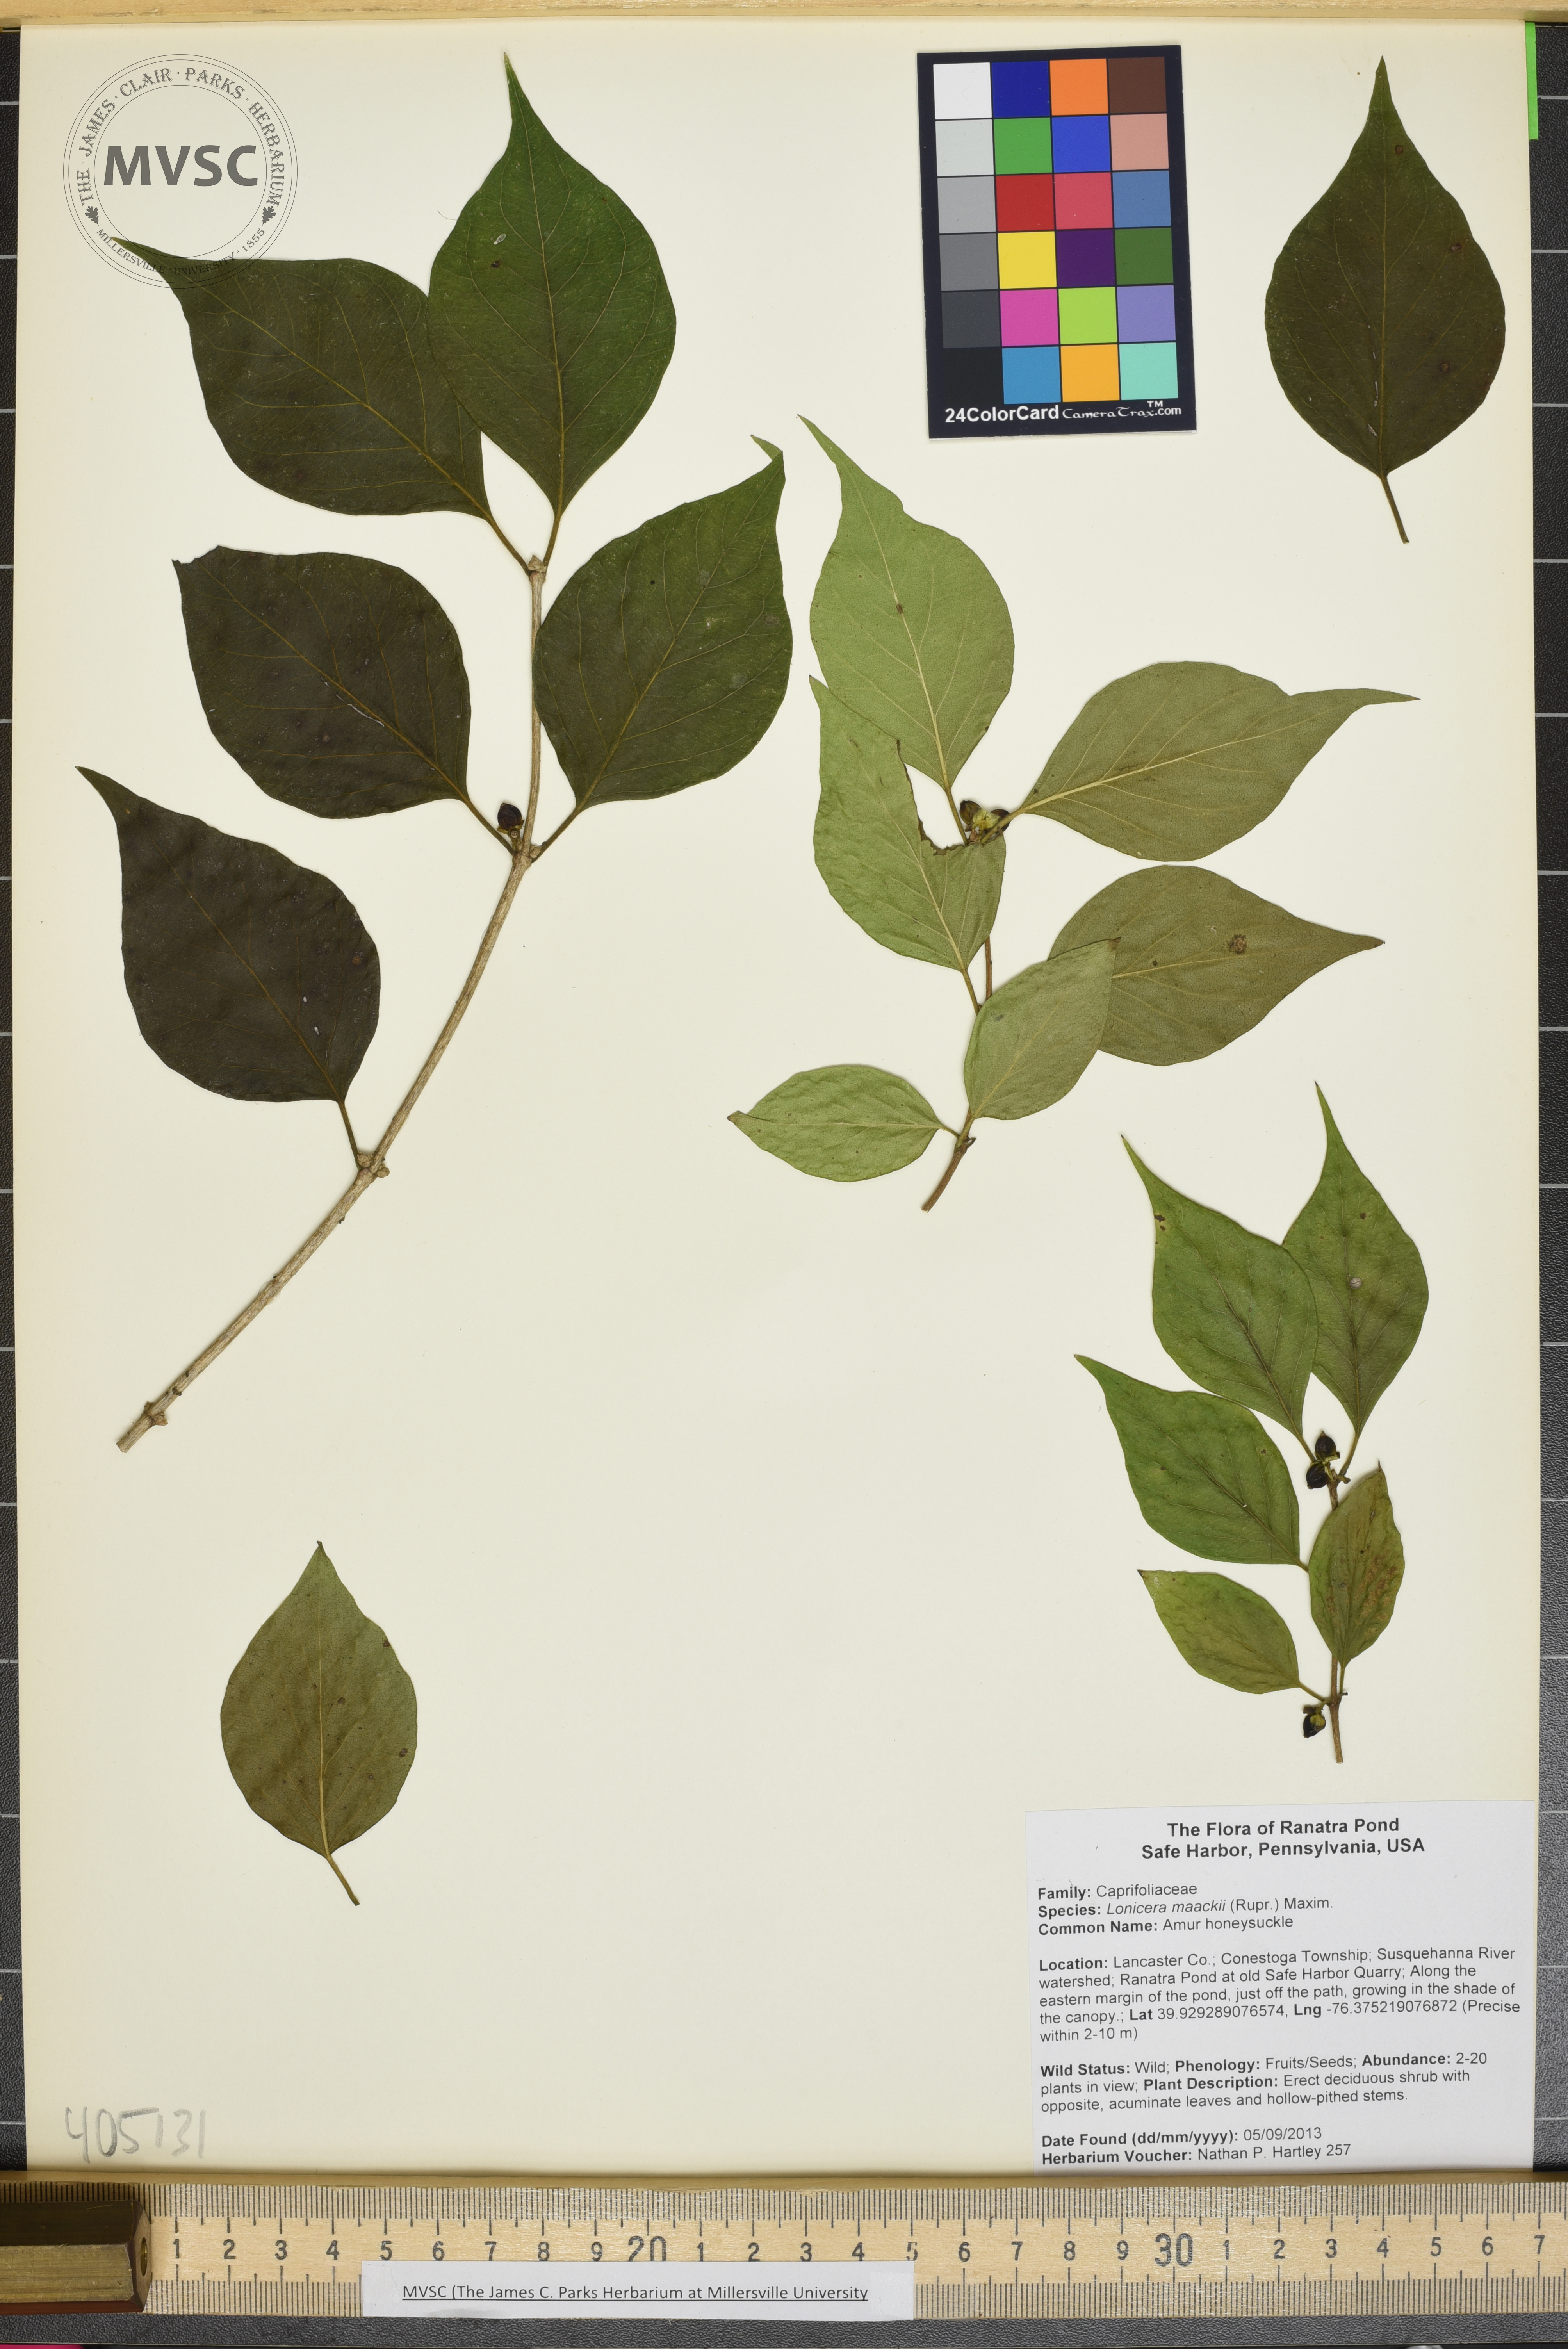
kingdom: Plantae
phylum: Tracheophyta
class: Magnoliopsida
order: Dipsacales
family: Caprifoliaceae
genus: Lonicera
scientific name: Lonicera maackii
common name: Amur honeysuckle
